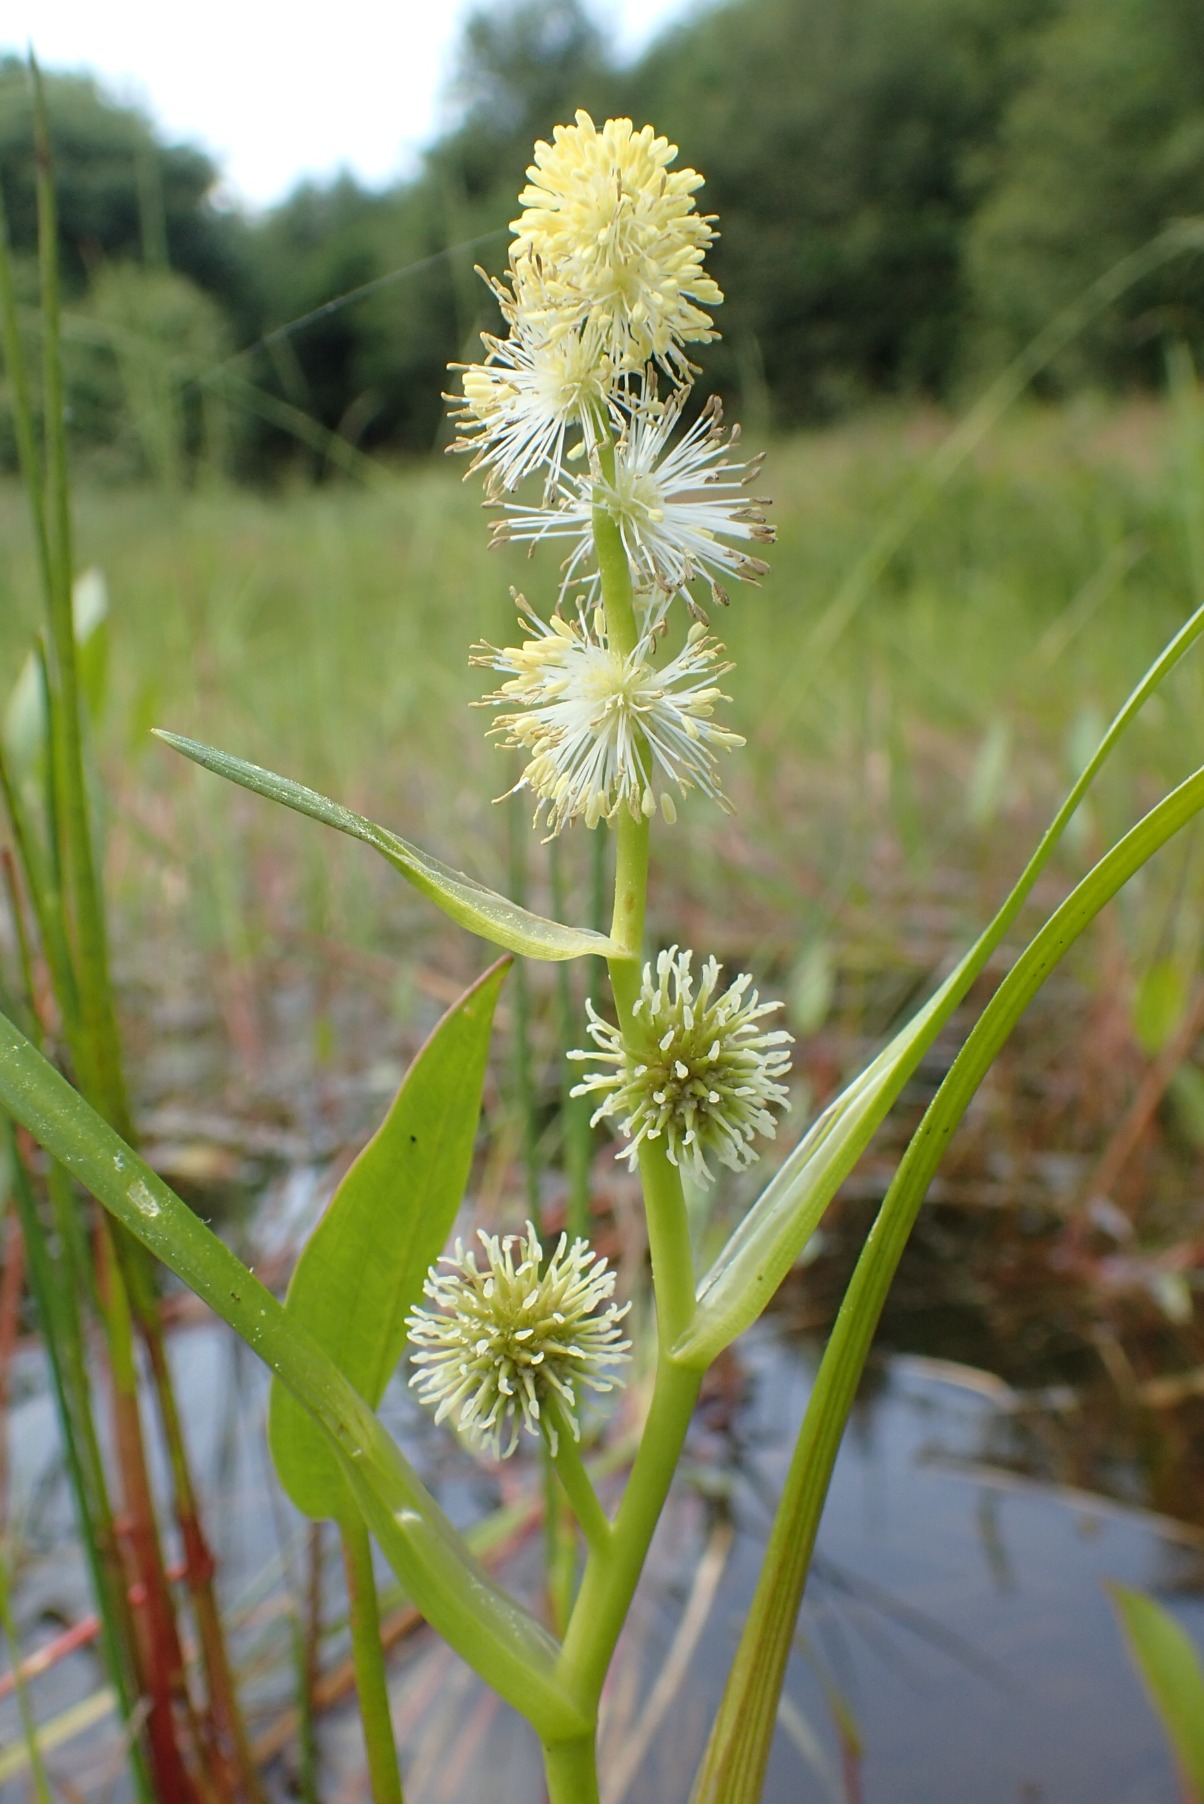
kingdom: Plantae
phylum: Tracheophyta
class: Liliopsida
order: Poales
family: Typhaceae
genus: Sparganium
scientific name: Sparganium emersum
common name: Enkelt pindsvineknop
